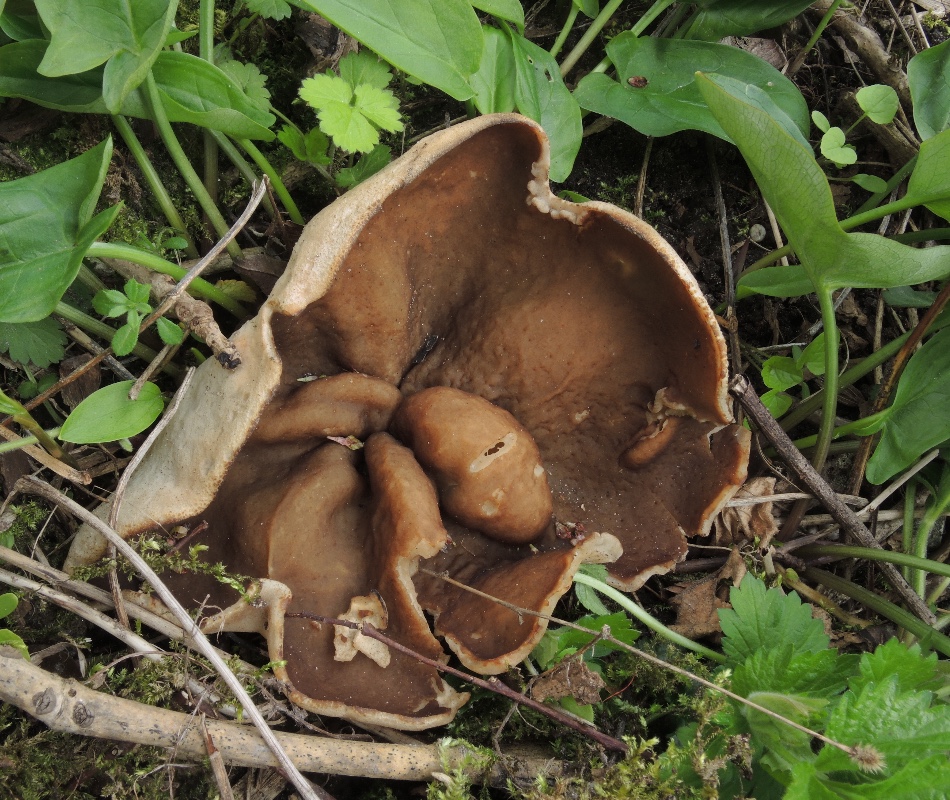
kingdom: Fungi
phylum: Ascomycota
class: Pezizomycetes
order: Pezizales
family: Morchellaceae
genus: Disciotis
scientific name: Disciotis venosa
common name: klor-bægermorkel
